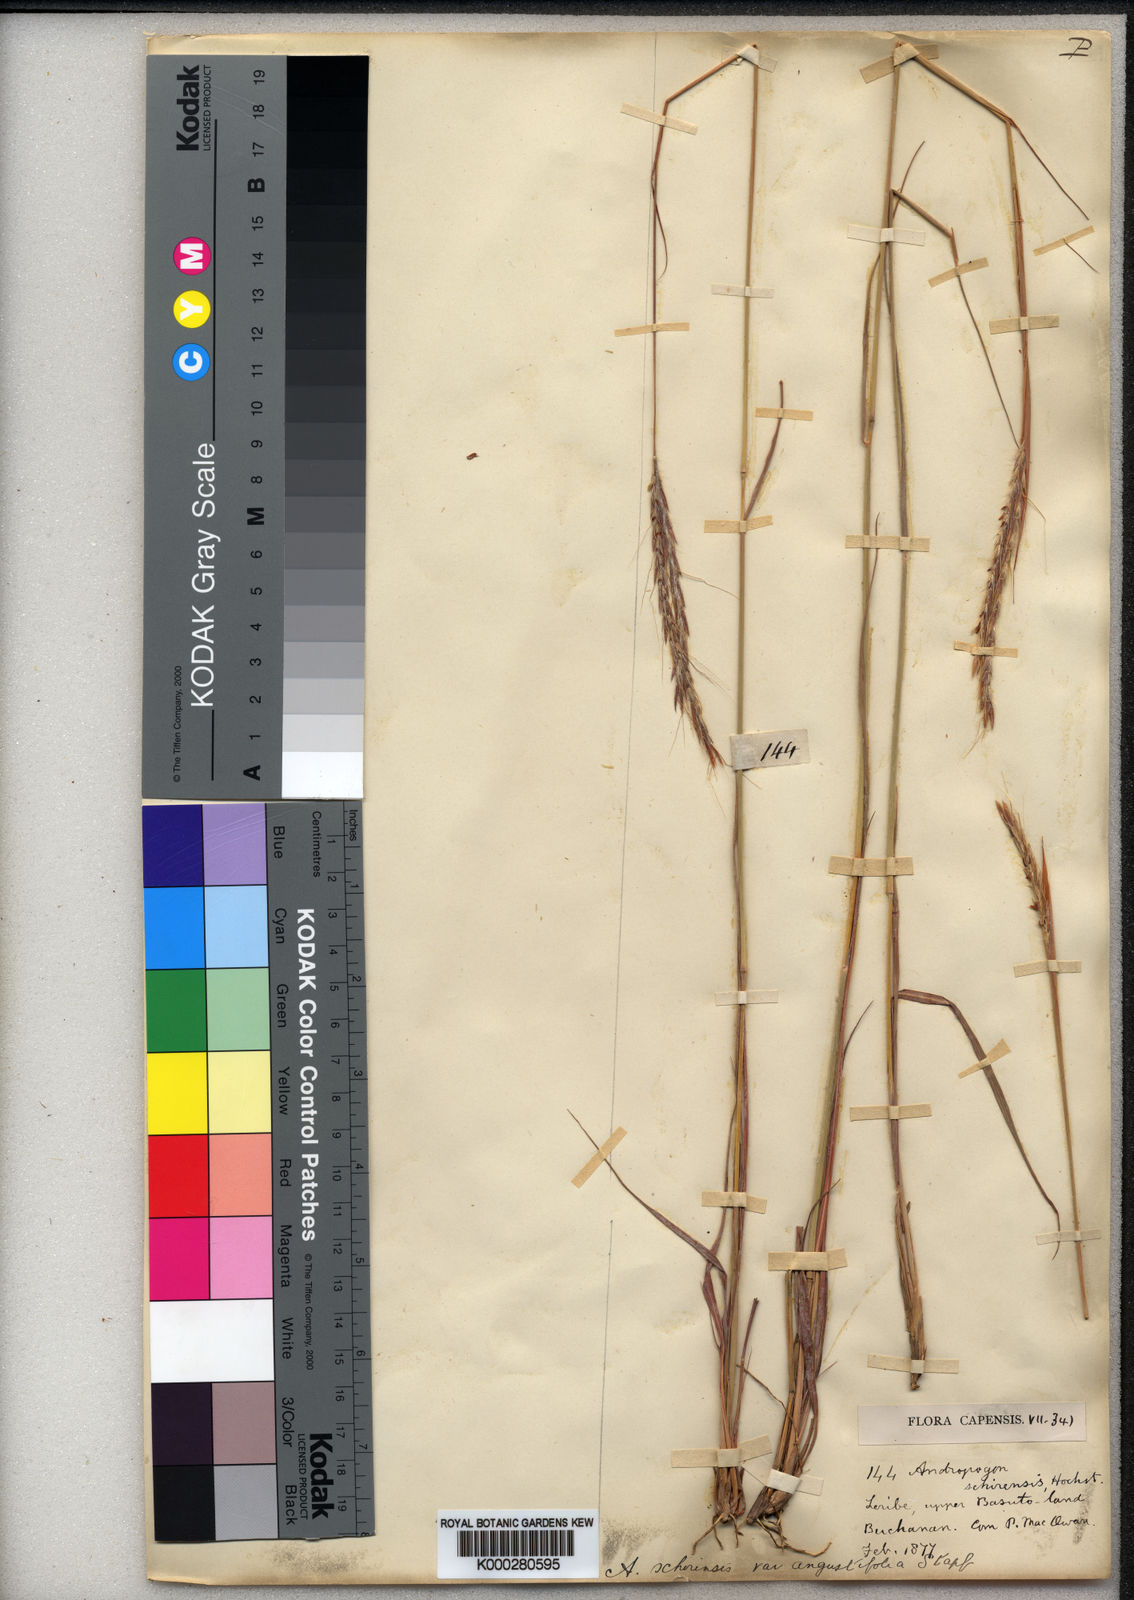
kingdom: Plantae
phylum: Tracheophyta
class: Liliopsida
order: Poales
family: Poaceae
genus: Andropogon
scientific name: Andropogon
